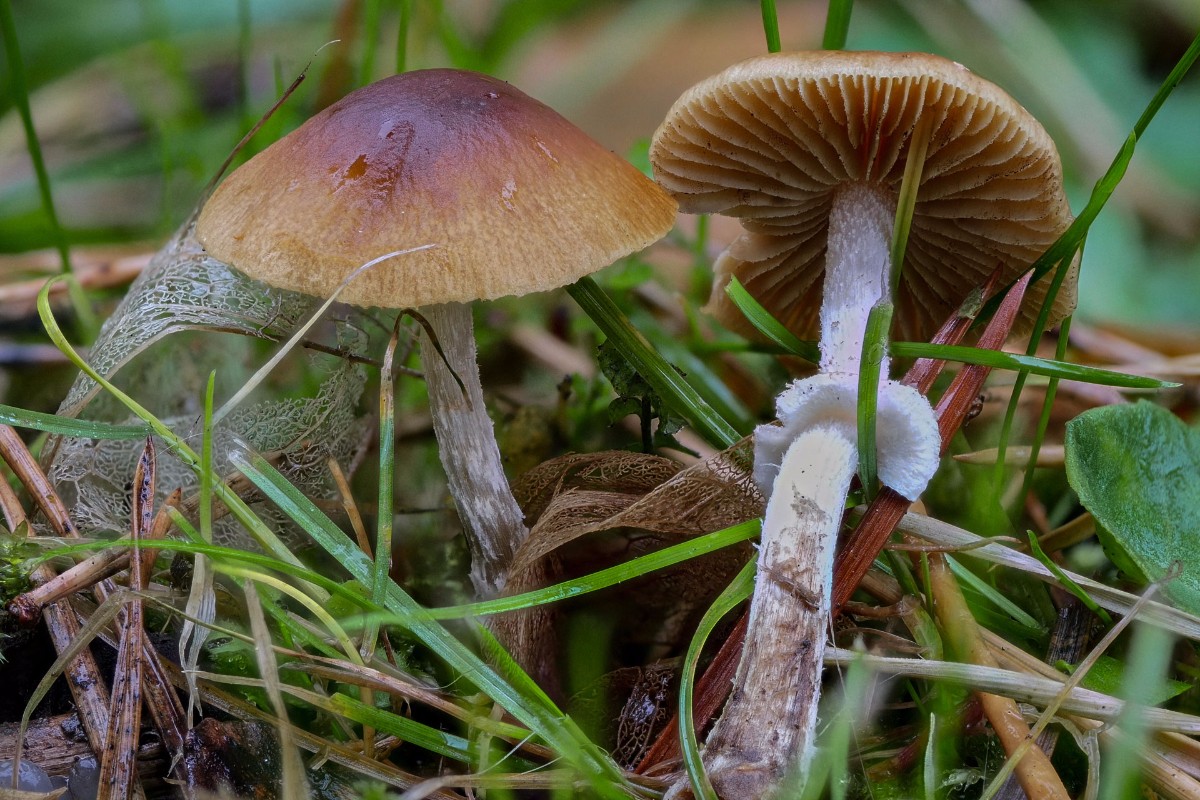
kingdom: Fungi
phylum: Basidiomycota
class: Agaricomycetes
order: Agaricales
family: Bolbitiaceae
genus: Conocybe
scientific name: Conocybe arrhenii
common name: ring-dansehat
